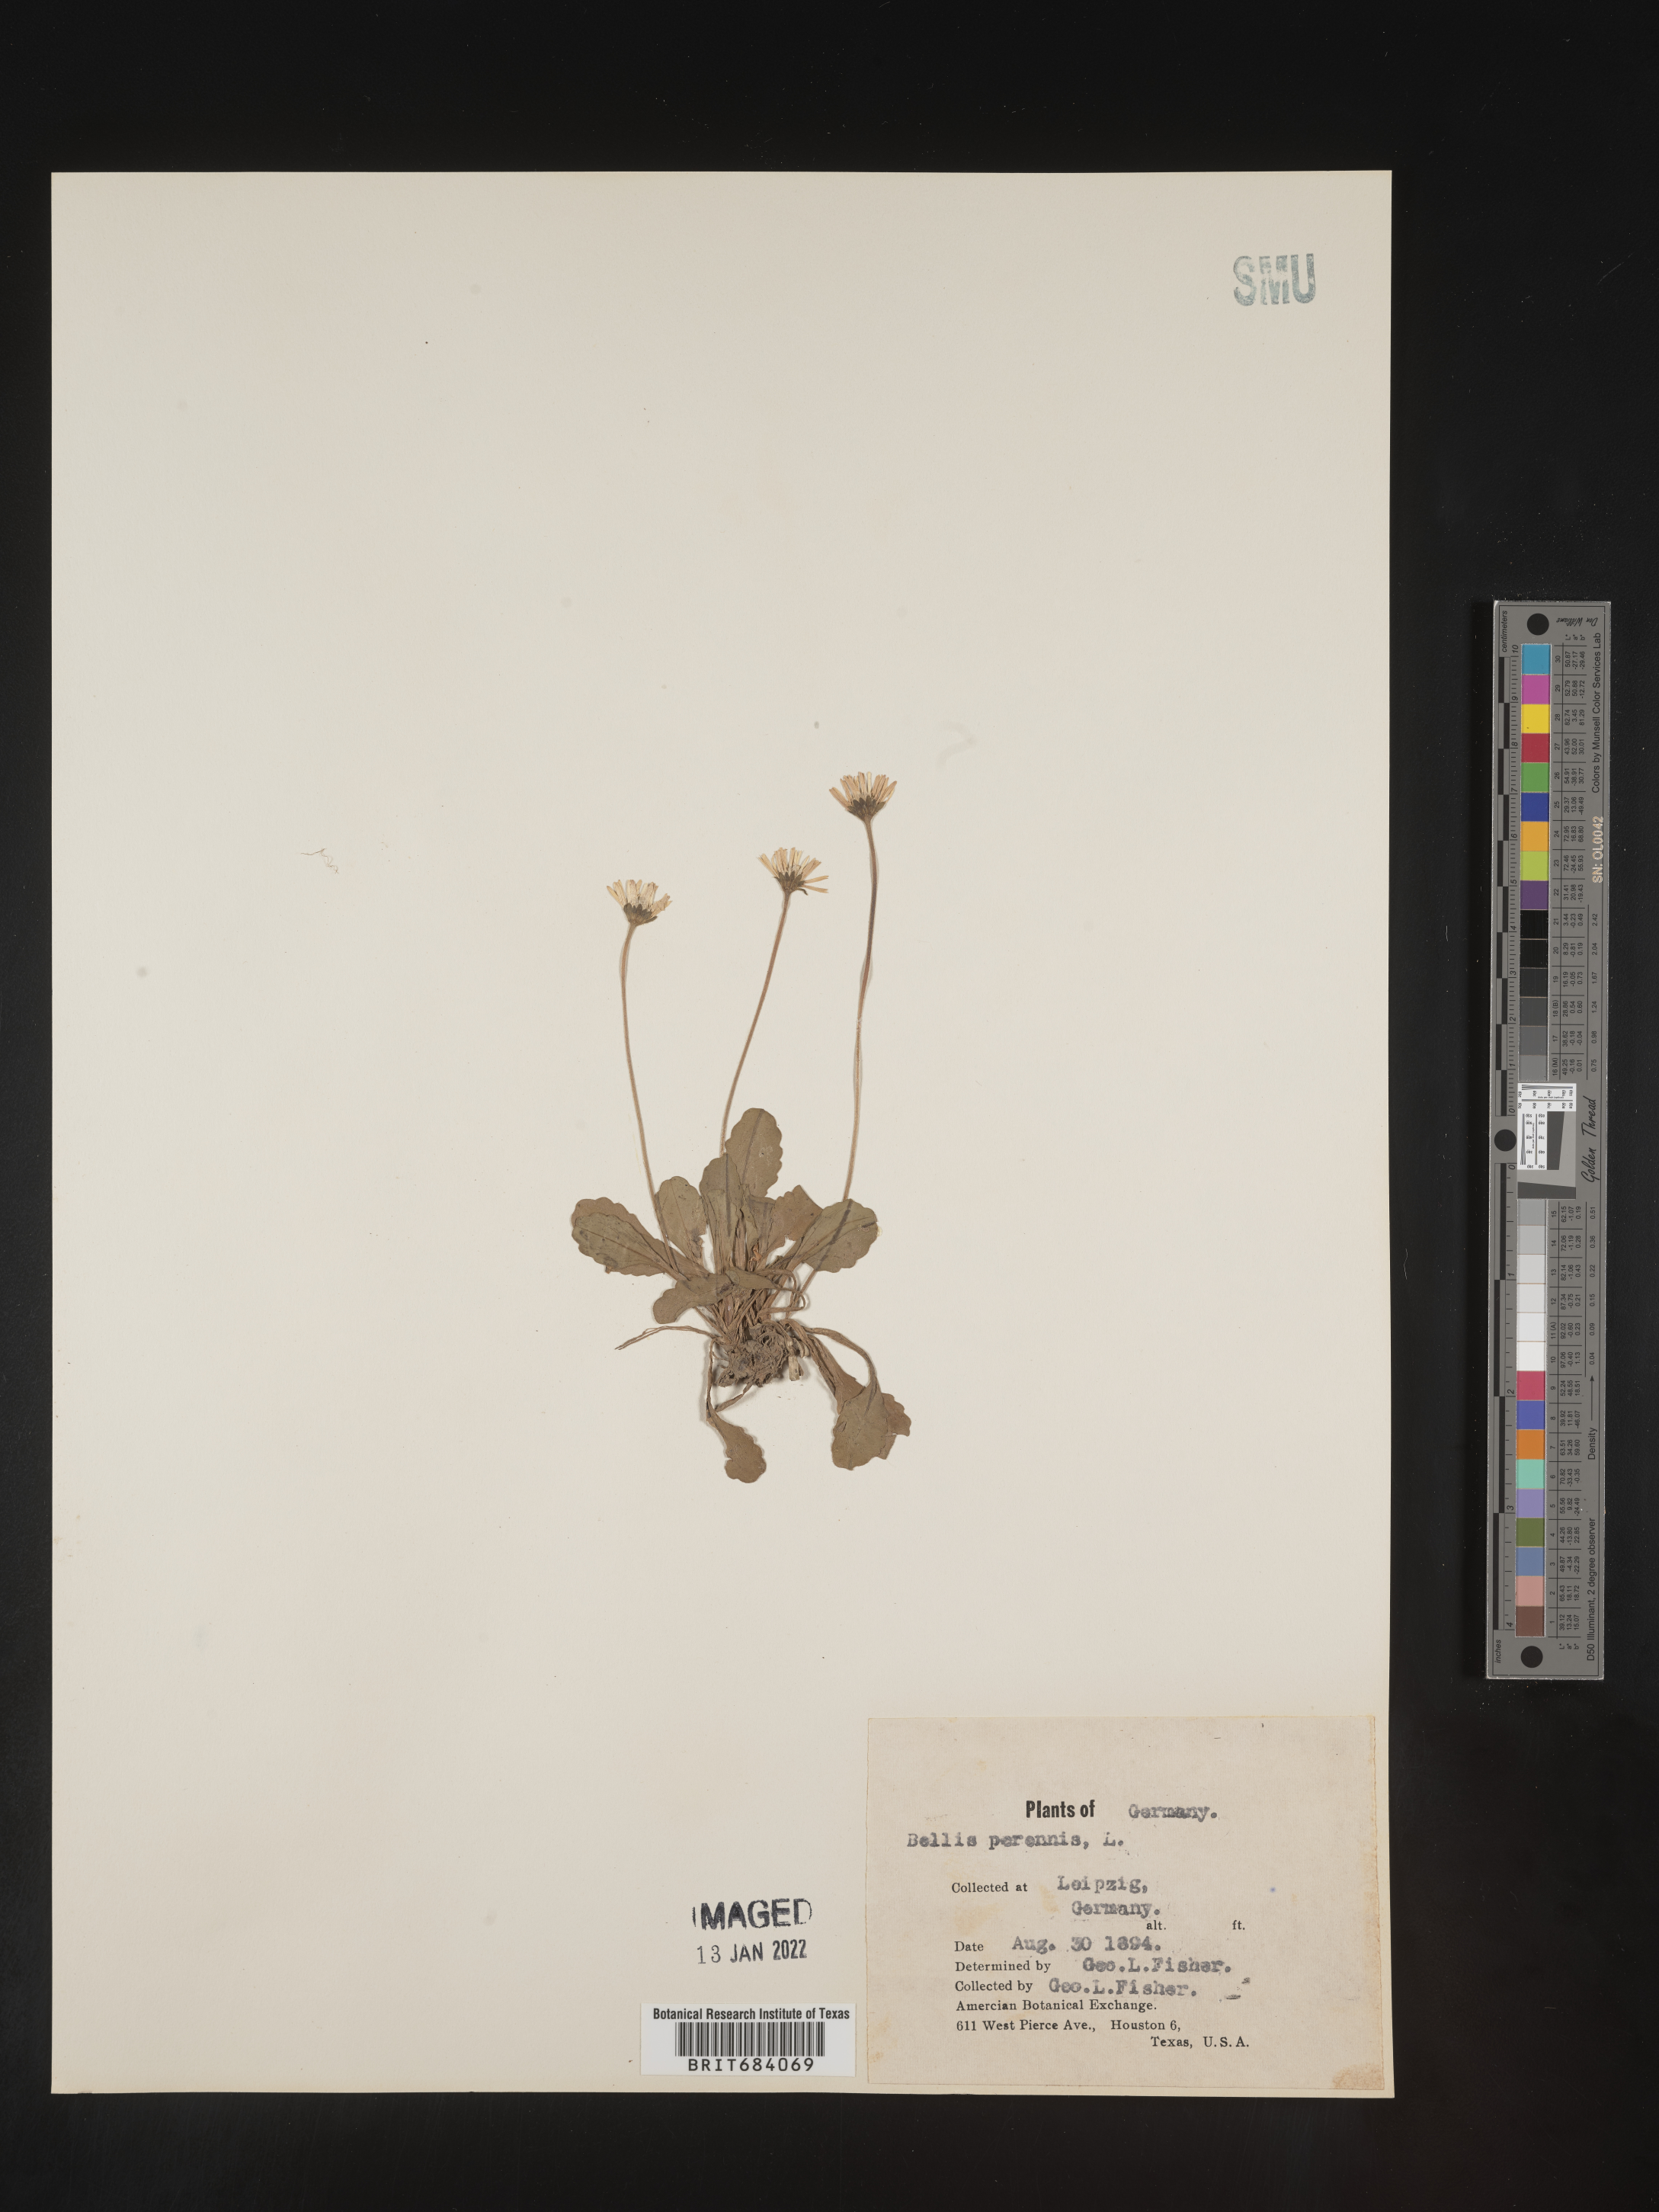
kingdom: Plantae
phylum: Tracheophyta
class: Magnoliopsida
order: Asterales
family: Asteraceae
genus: Bellis
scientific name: Bellis
